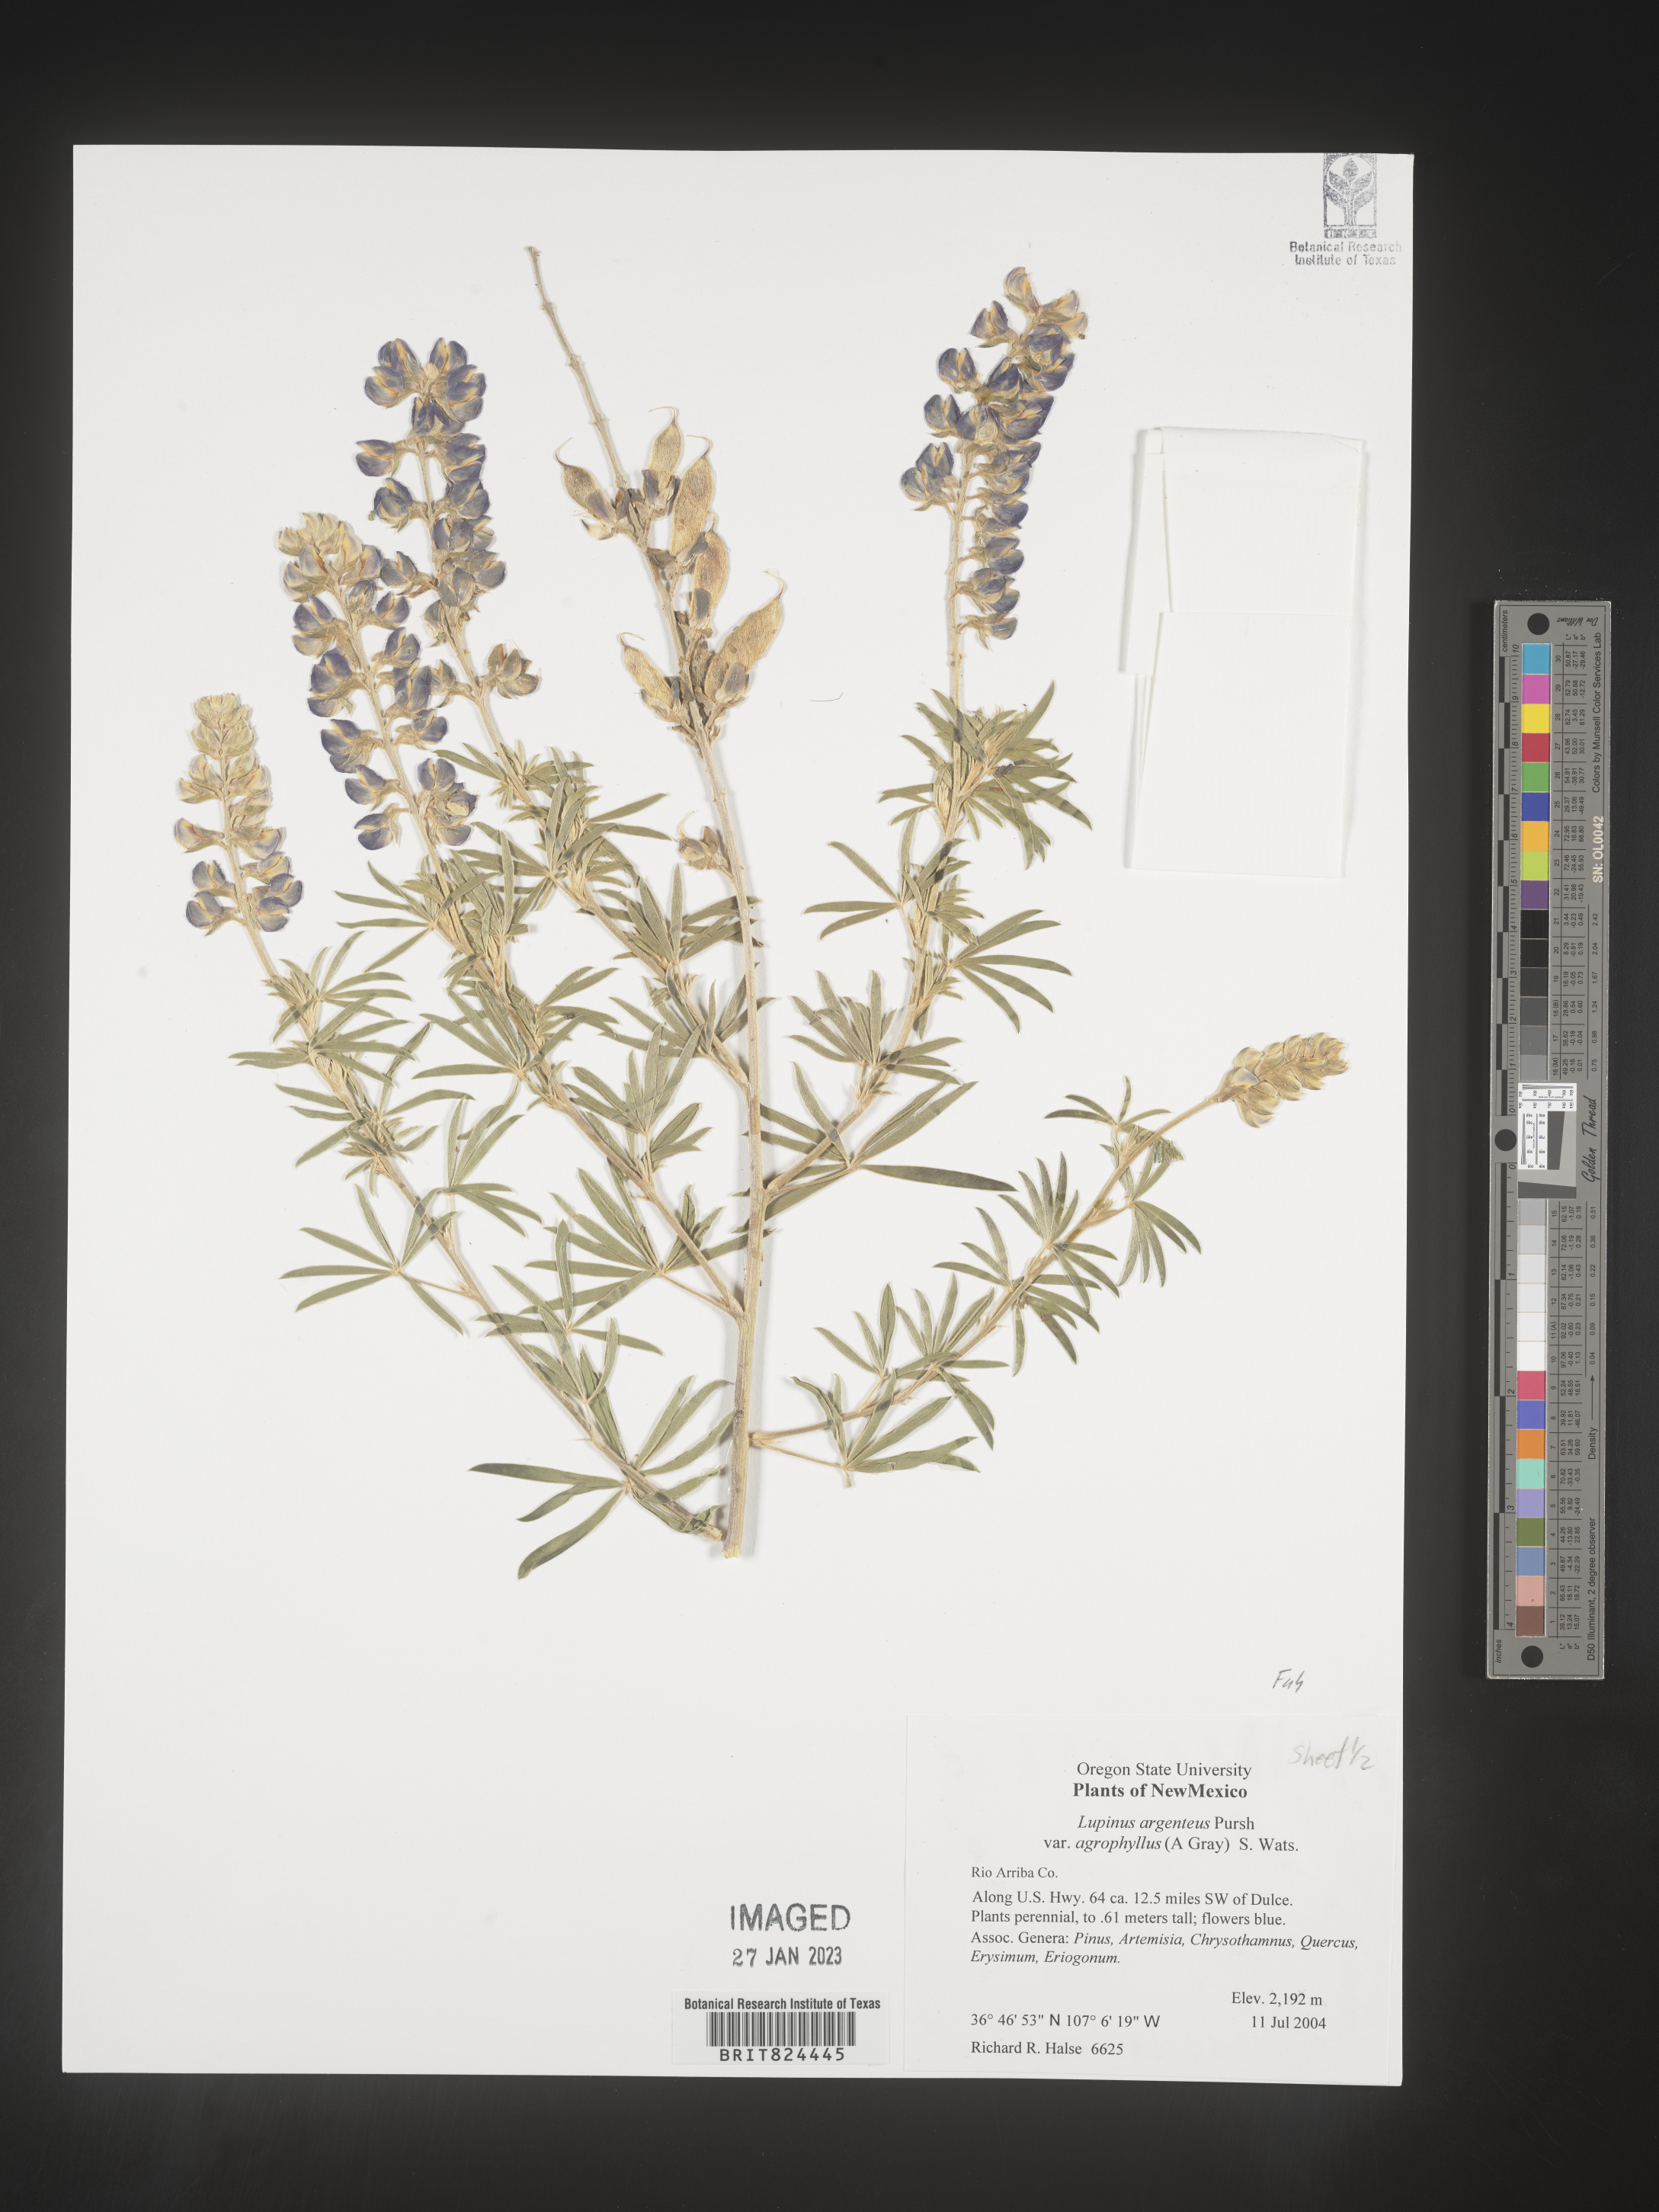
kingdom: Plantae
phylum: Tracheophyta
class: Magnoliopsida
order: Fabales
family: Fabaceae
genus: Lupinus
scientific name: Lupinus argenteus
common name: Silvery lupine
